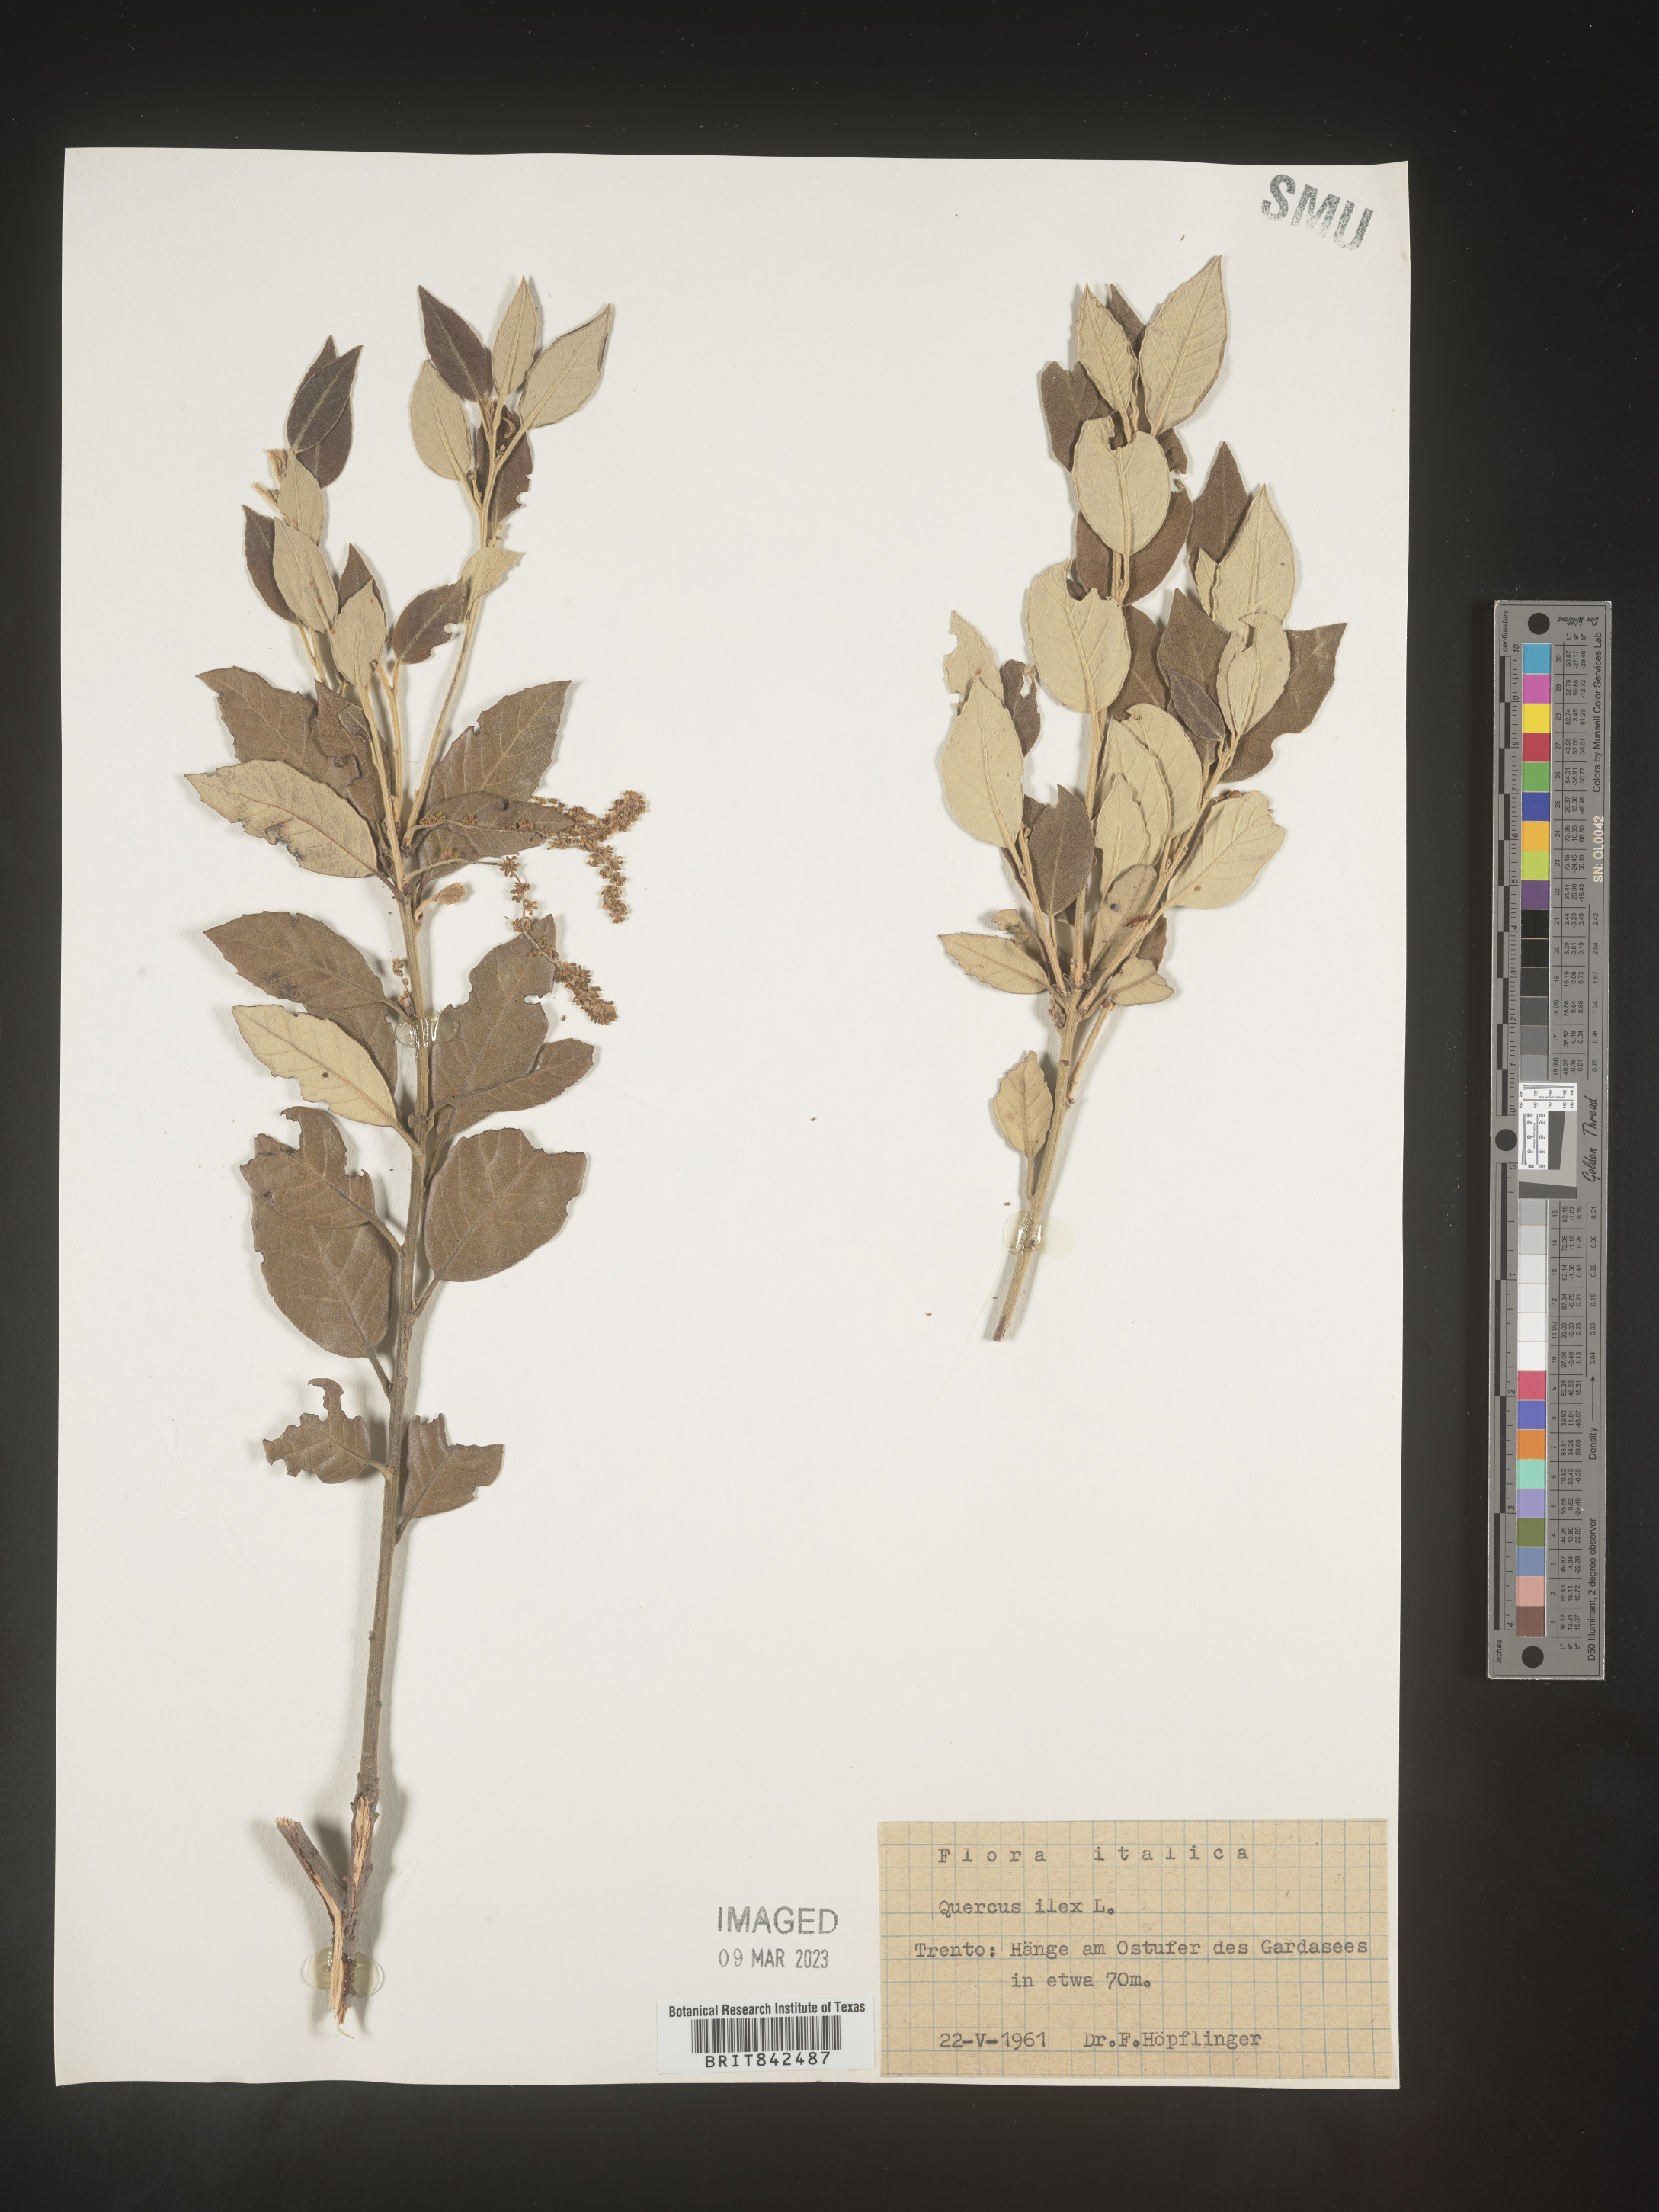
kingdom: Plantae
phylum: Tracheophyta
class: Magnoliopsida
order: Fagales
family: Fagaceae
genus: Quercus
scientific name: Quercus
